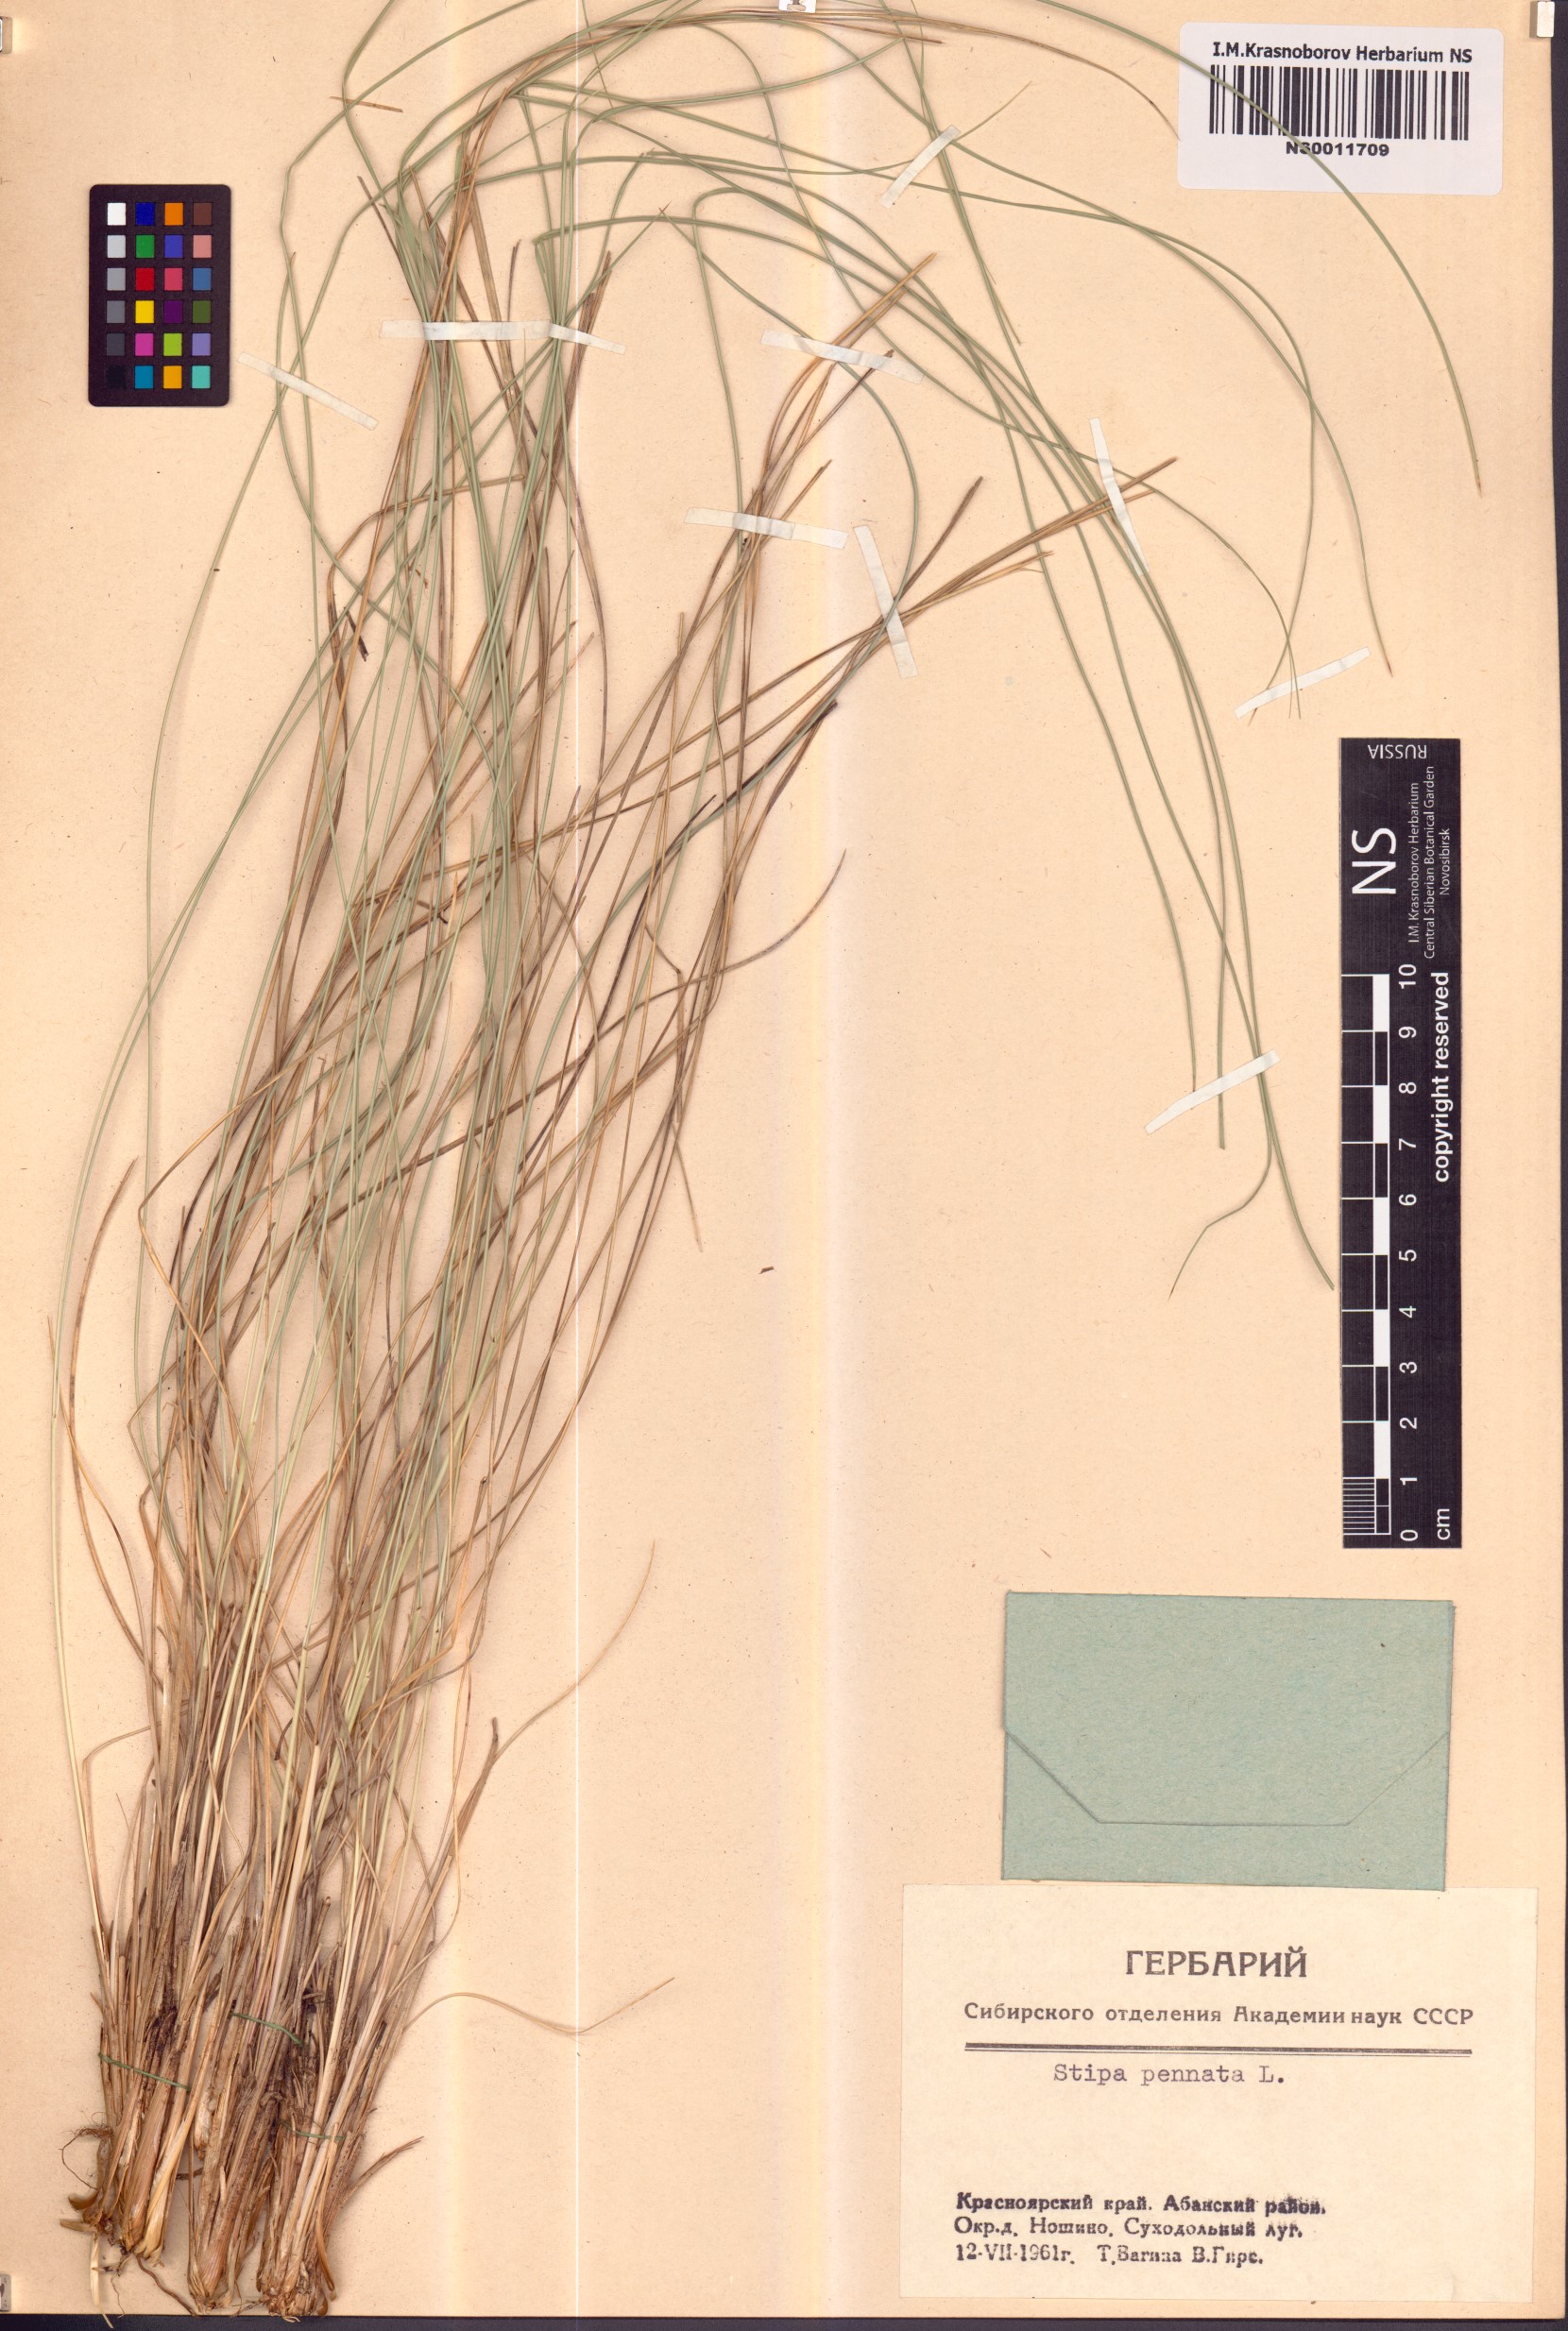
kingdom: Plantae
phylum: Tracheophyta
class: Liliopsida
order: Poales
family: Poaceae
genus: Stipa
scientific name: Stipa pennata
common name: European feather grass
